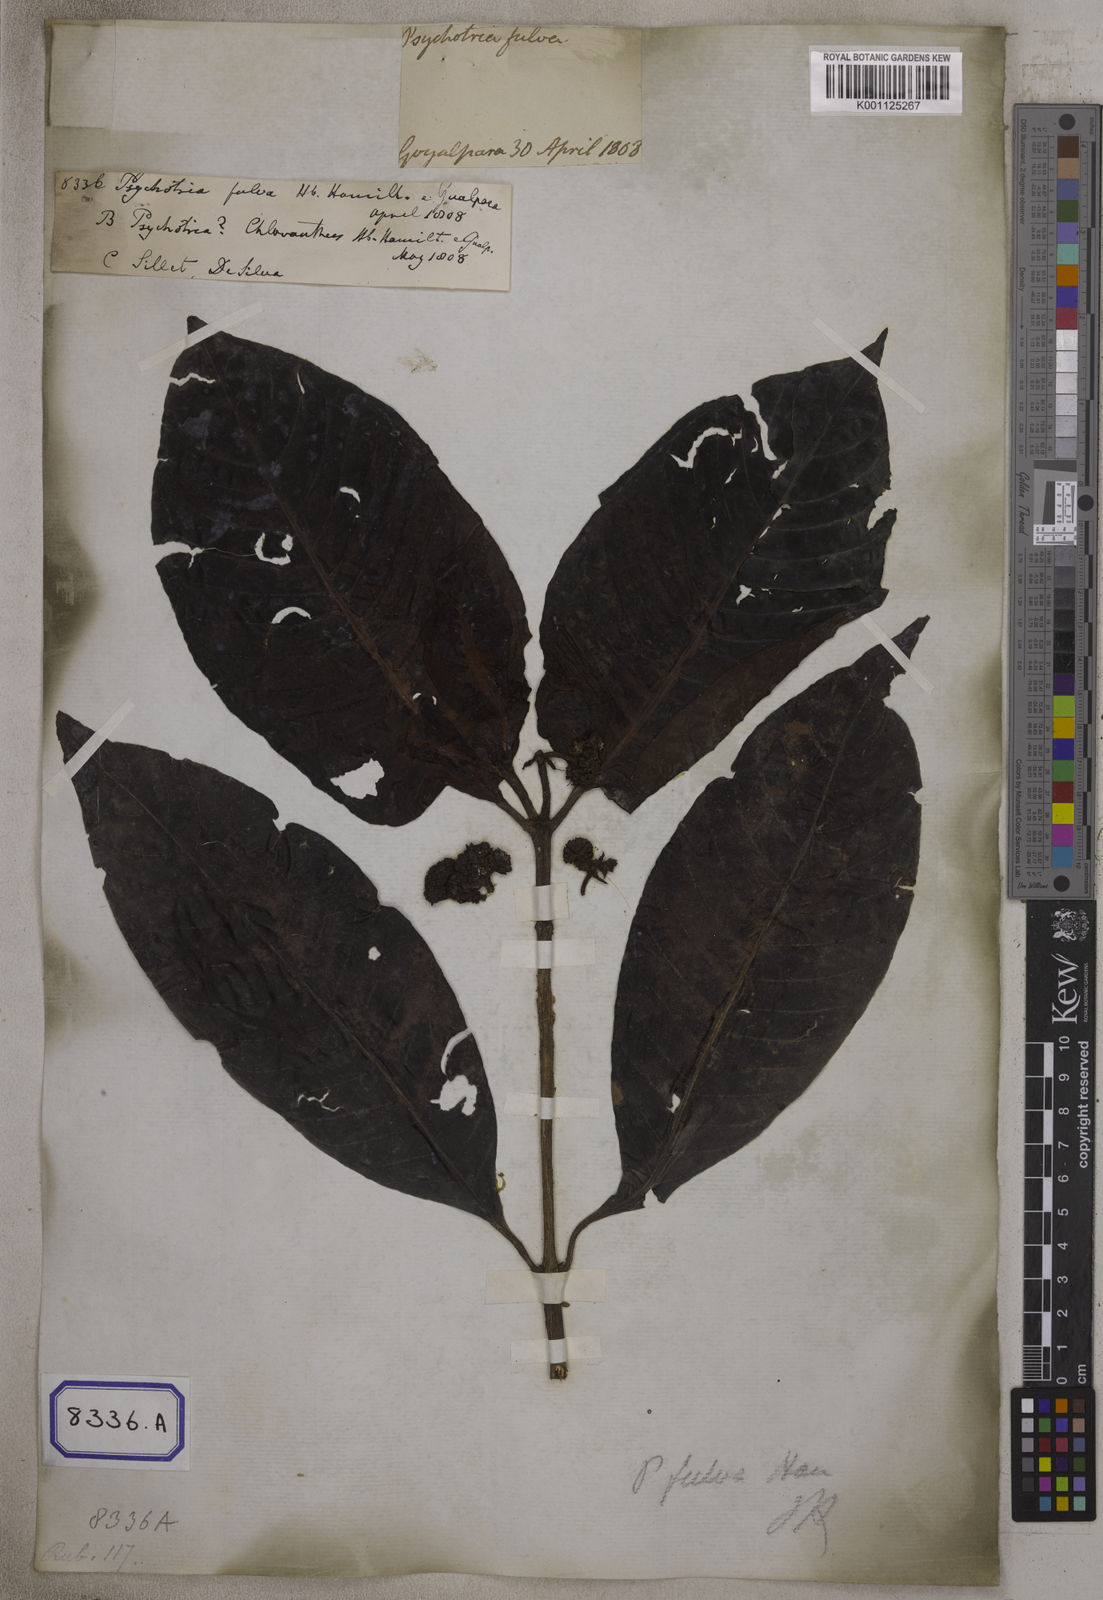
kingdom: Plantae
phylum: Tracheophyta
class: Magnoliopsida
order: Gentianales
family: Rubiaceae
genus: Psychotria
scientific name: Psychotria
